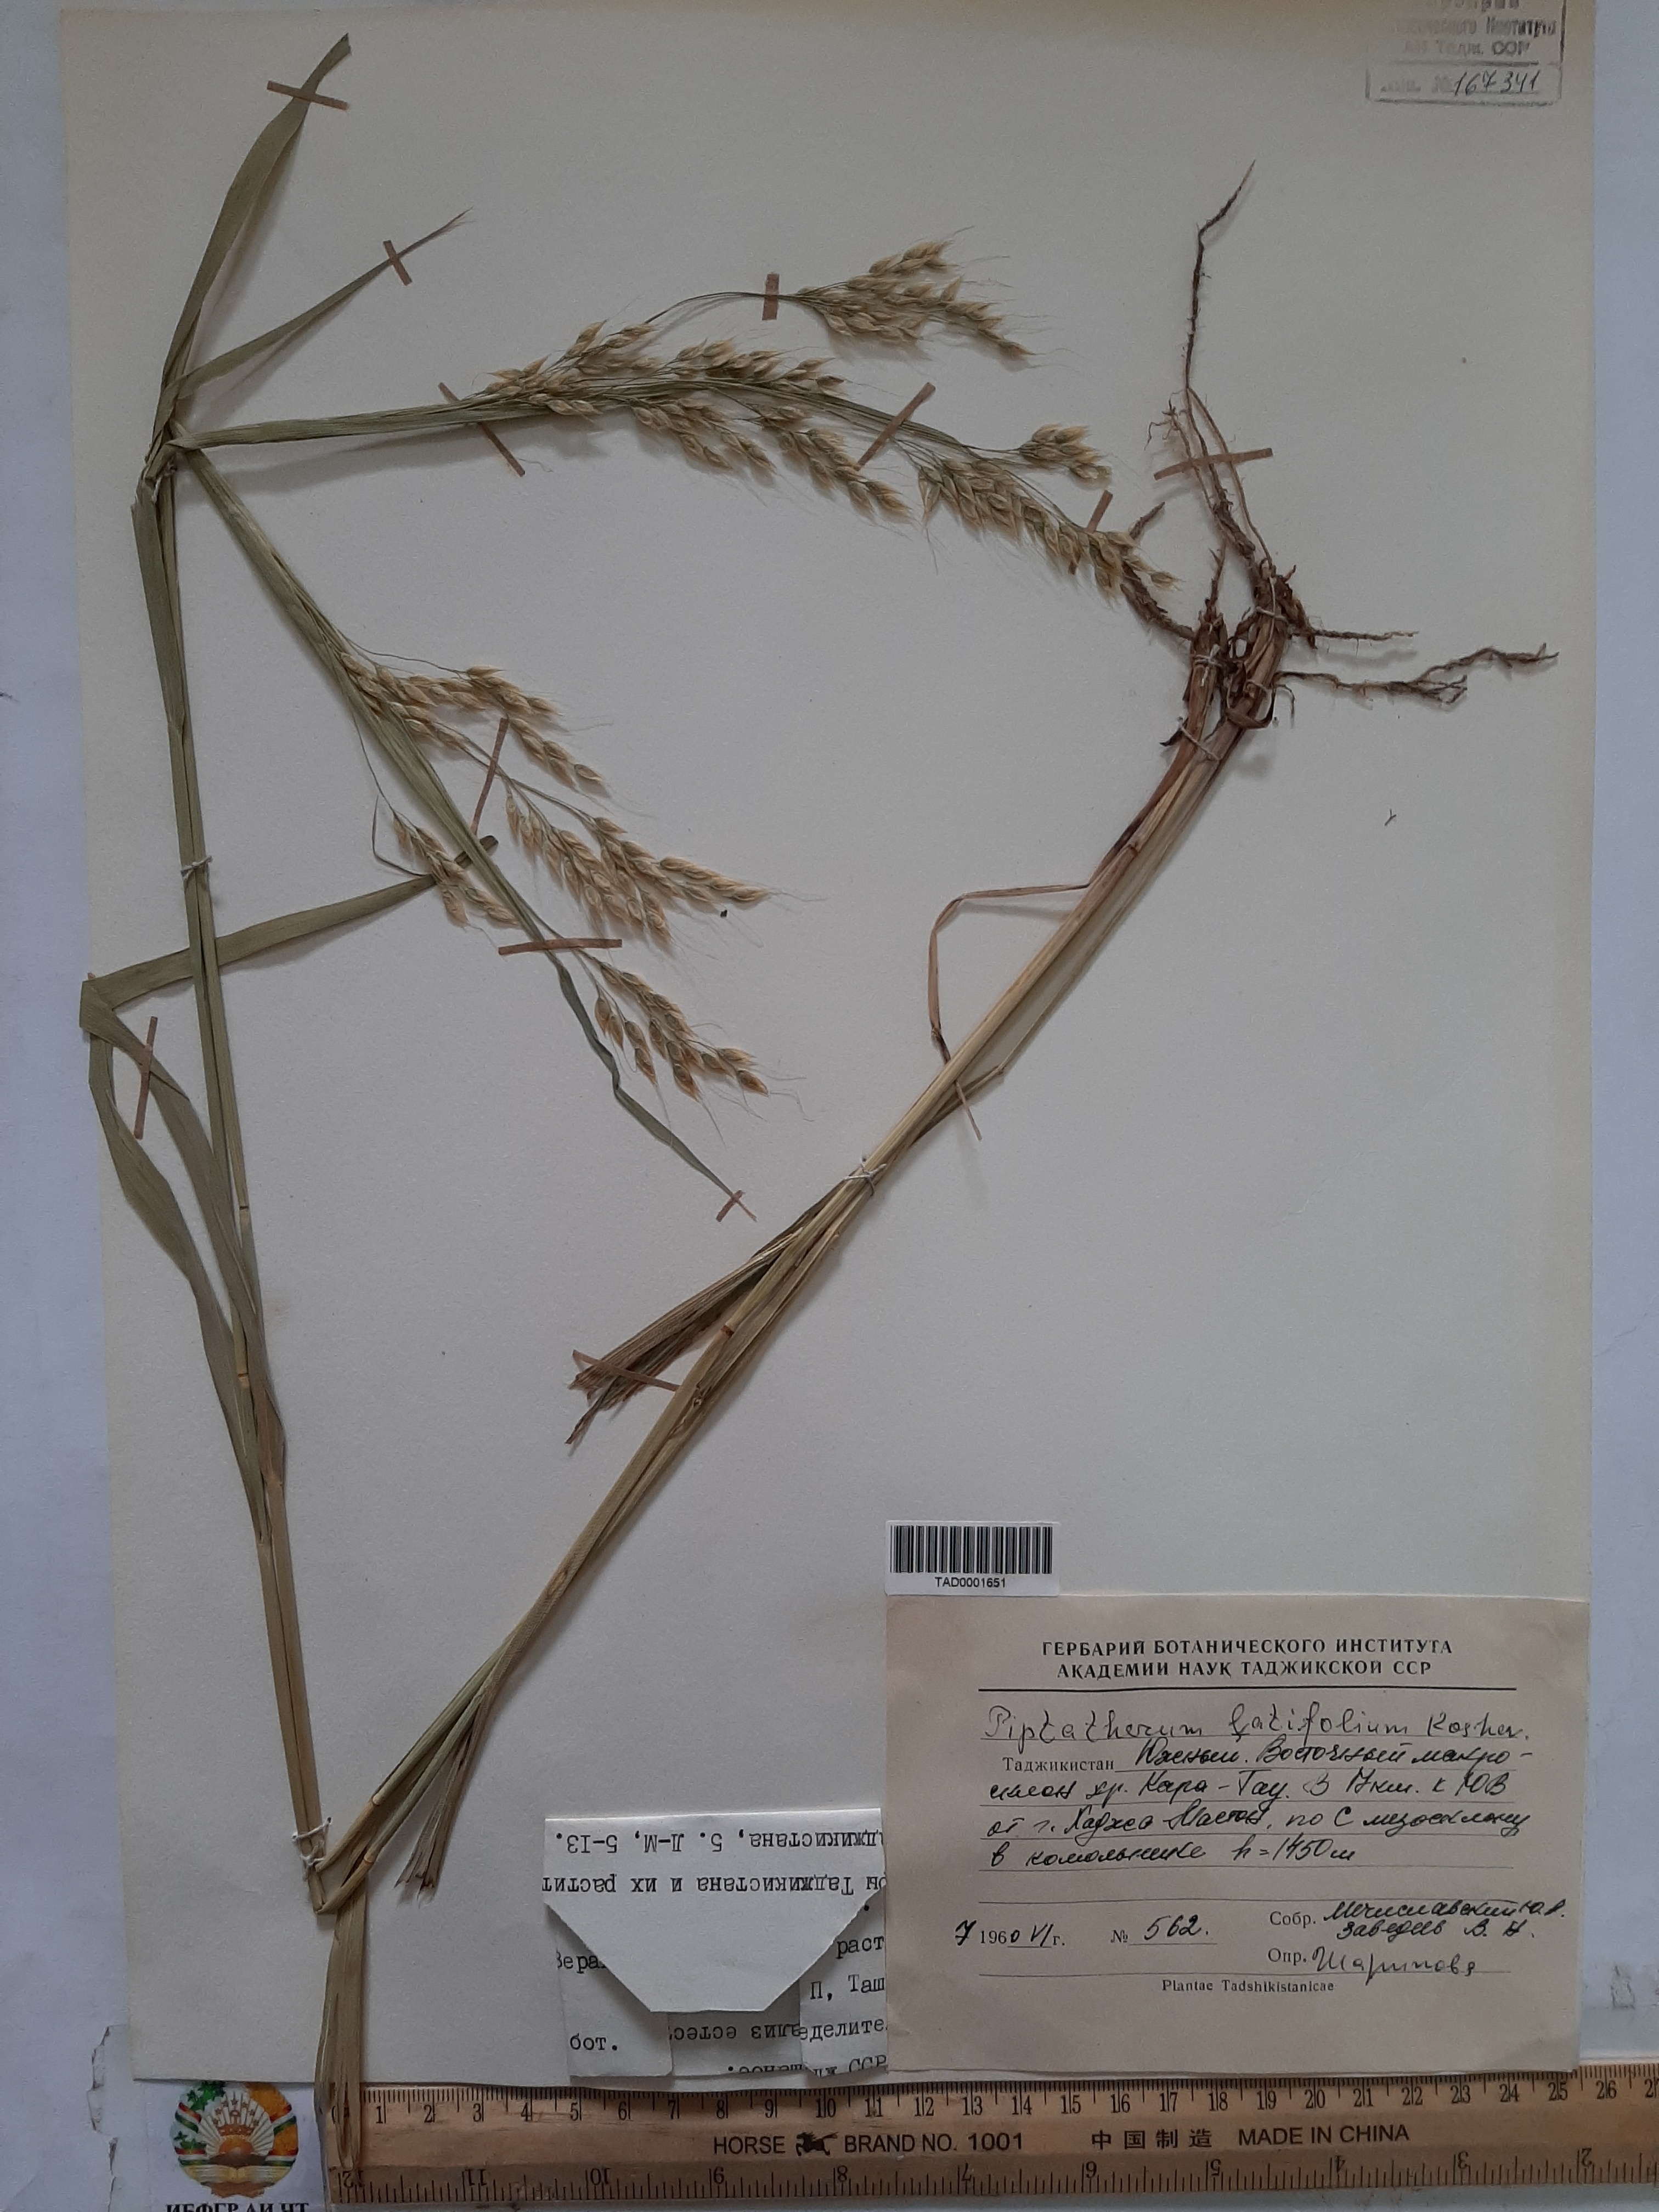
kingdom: Plantae
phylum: Tracheophyta
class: Liliopsida
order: Poales
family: Poaceae
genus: Piptatherum
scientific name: Piptatherum latifolium
